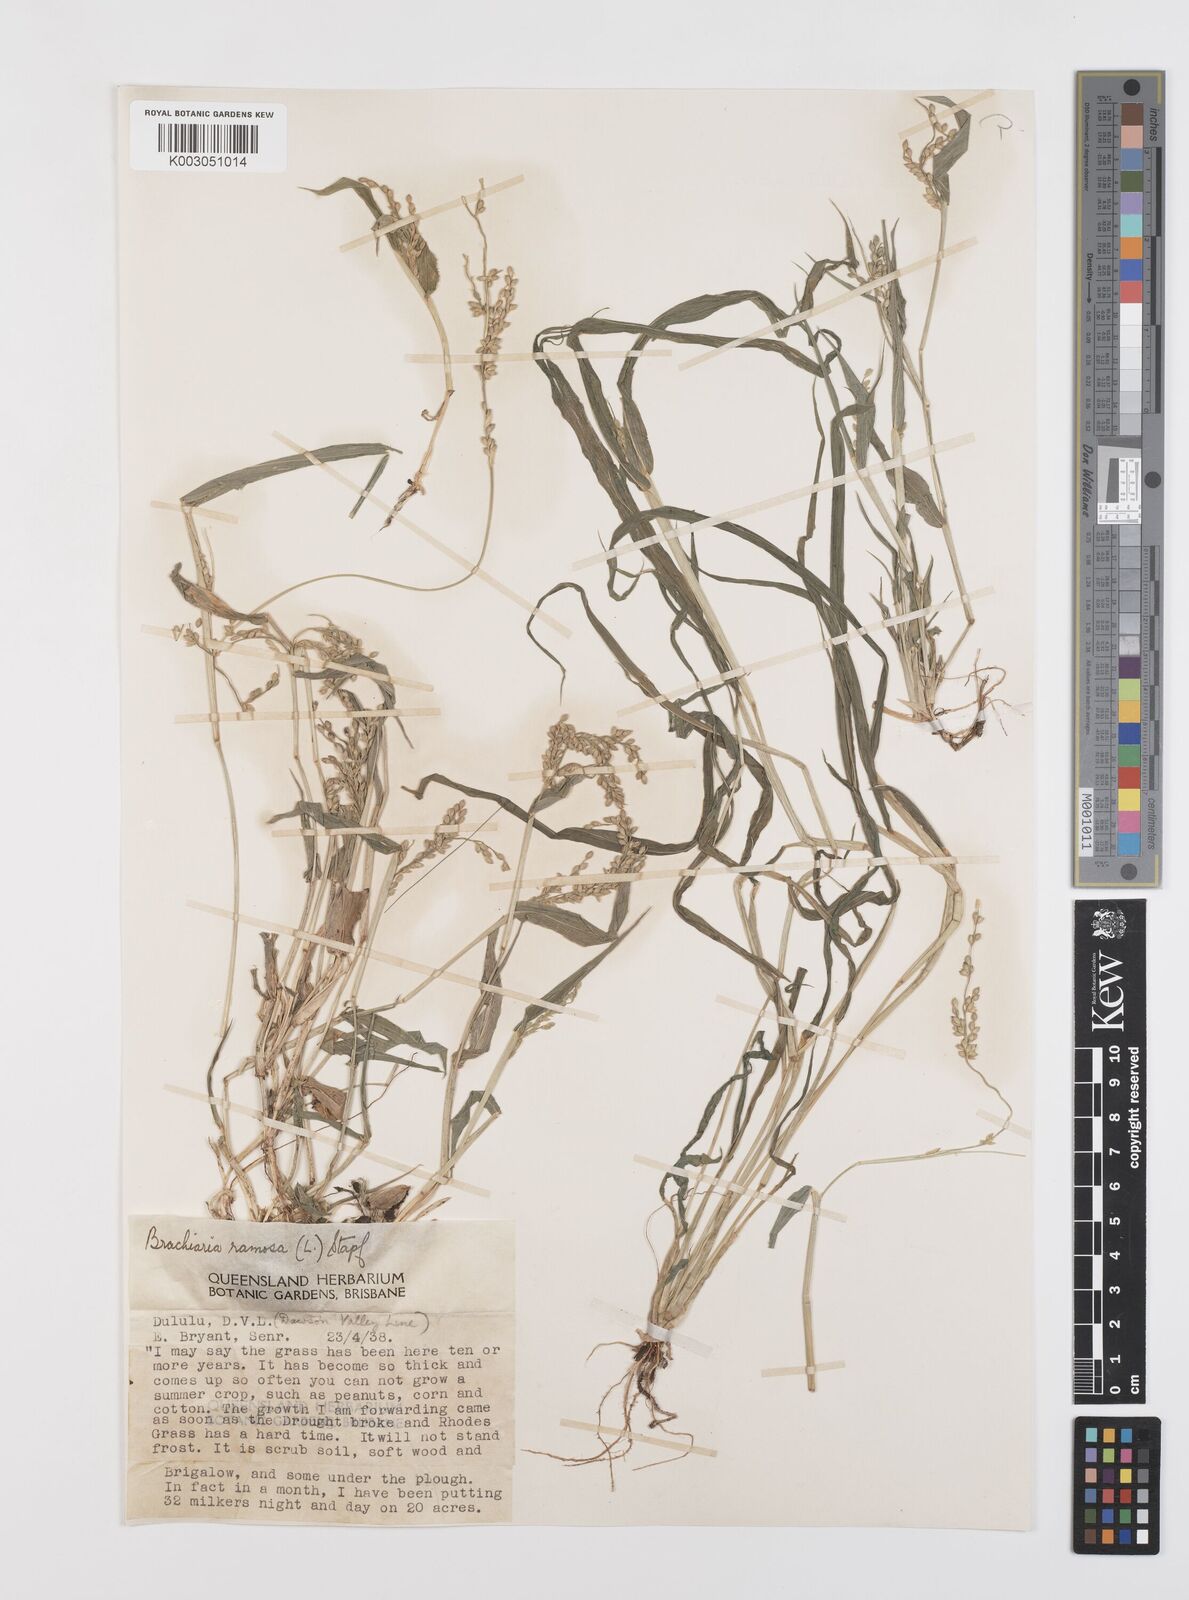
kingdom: Plantae
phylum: Tracheophyta
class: Liliopsida
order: Poales
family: Poaceae
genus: Urochloa
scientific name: Urochloa ramosa
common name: Browntop millet
